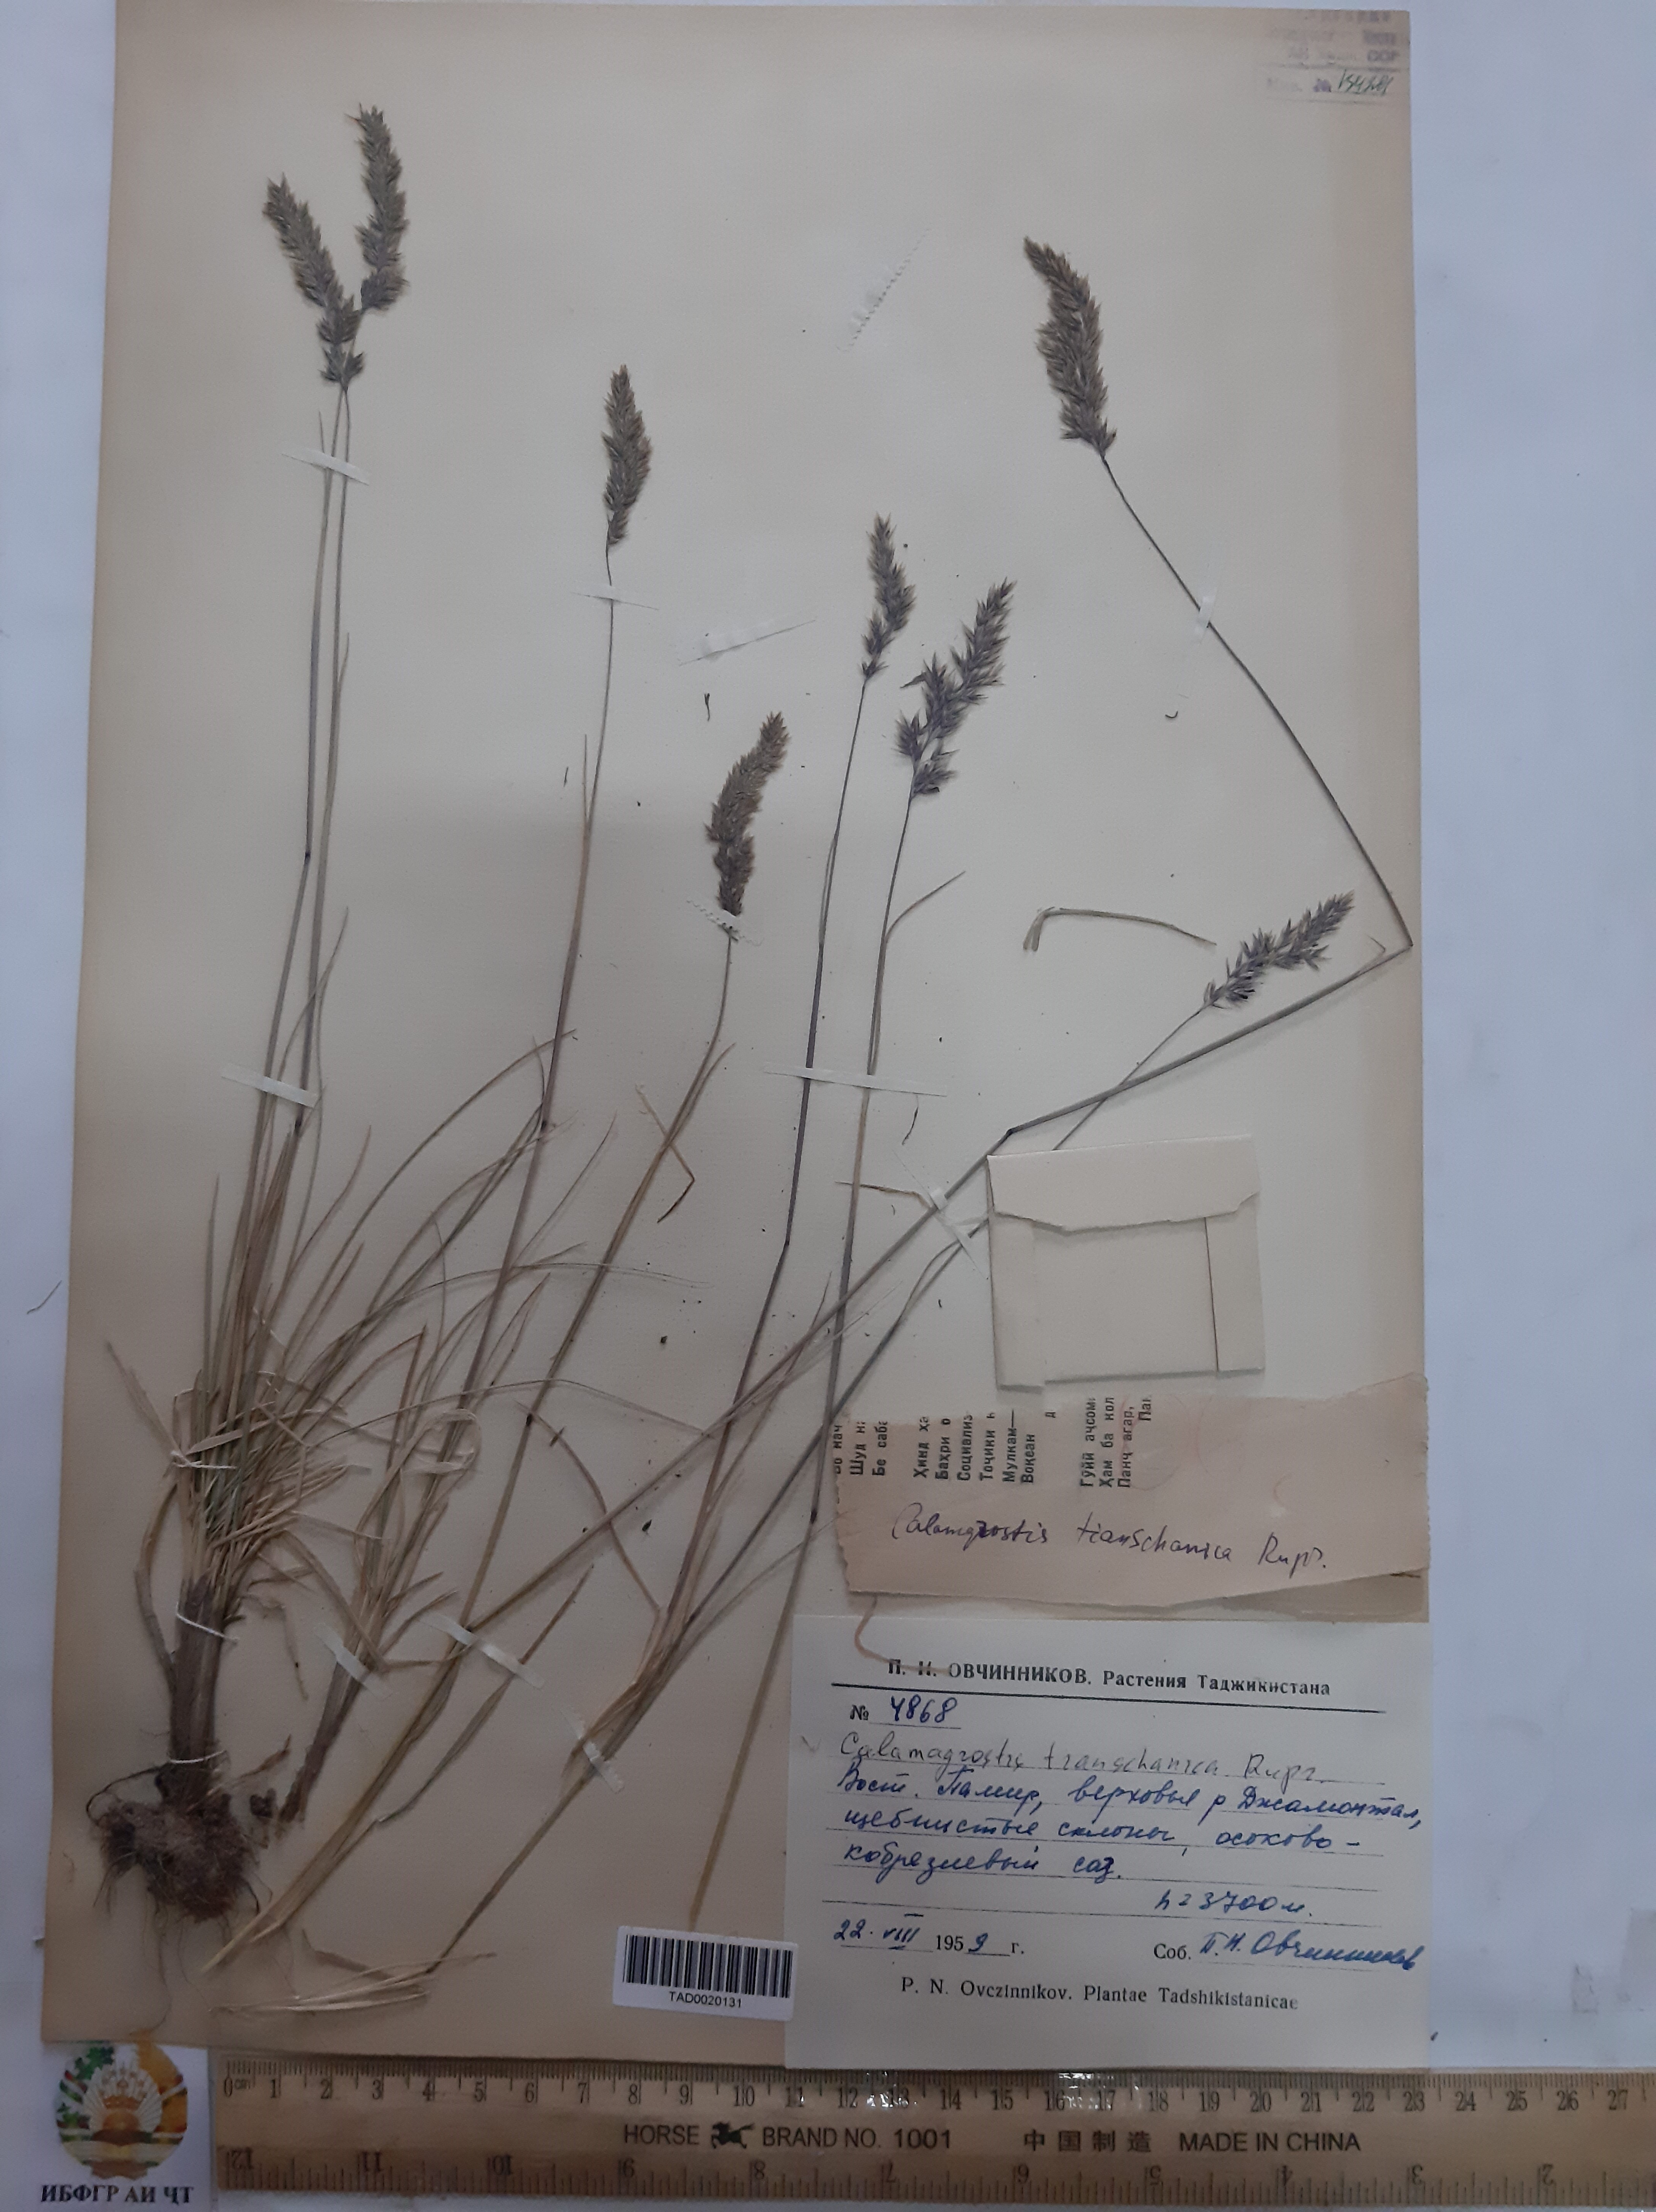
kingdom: Plantae
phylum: Tracheophyta
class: Liliopsida
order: Poales
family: Poaceae
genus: Calamagrostis
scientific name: Calamagrostis tianschanica
